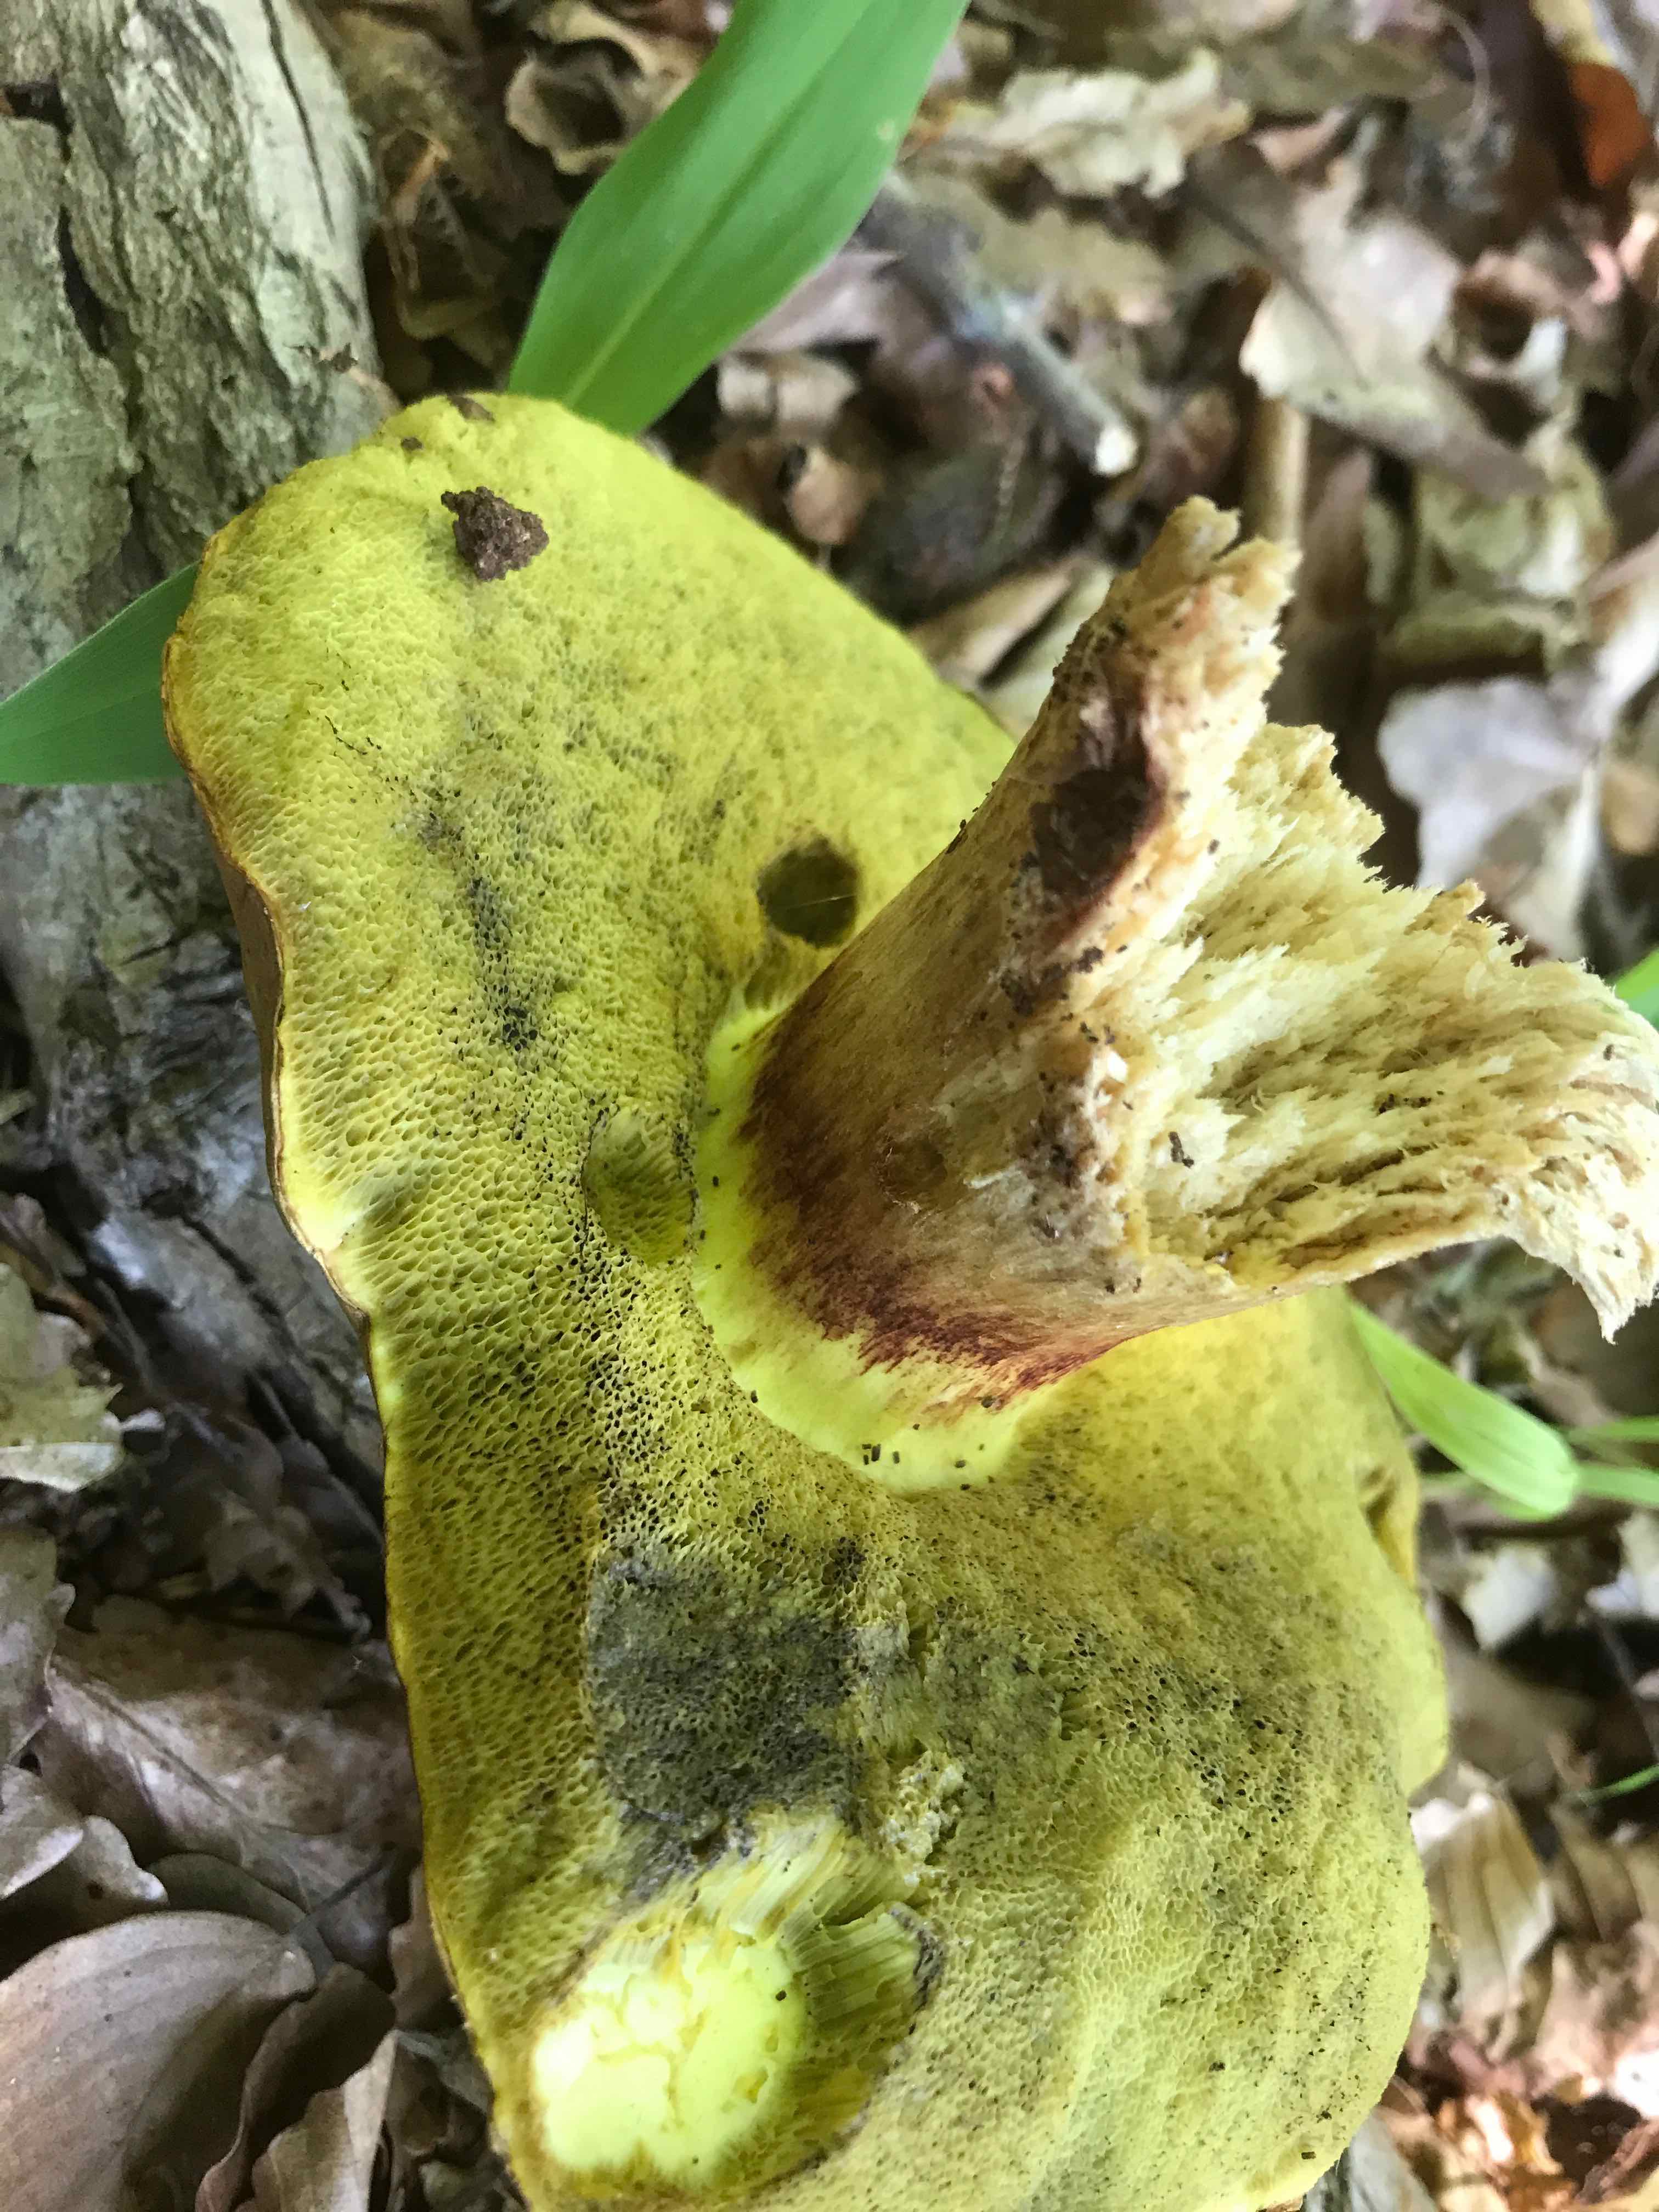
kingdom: Fungi
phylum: Basidiomycota
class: Agaricomycetes
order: Boletales
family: Boletaceae
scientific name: Boletaceae
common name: rørhatfamilien
